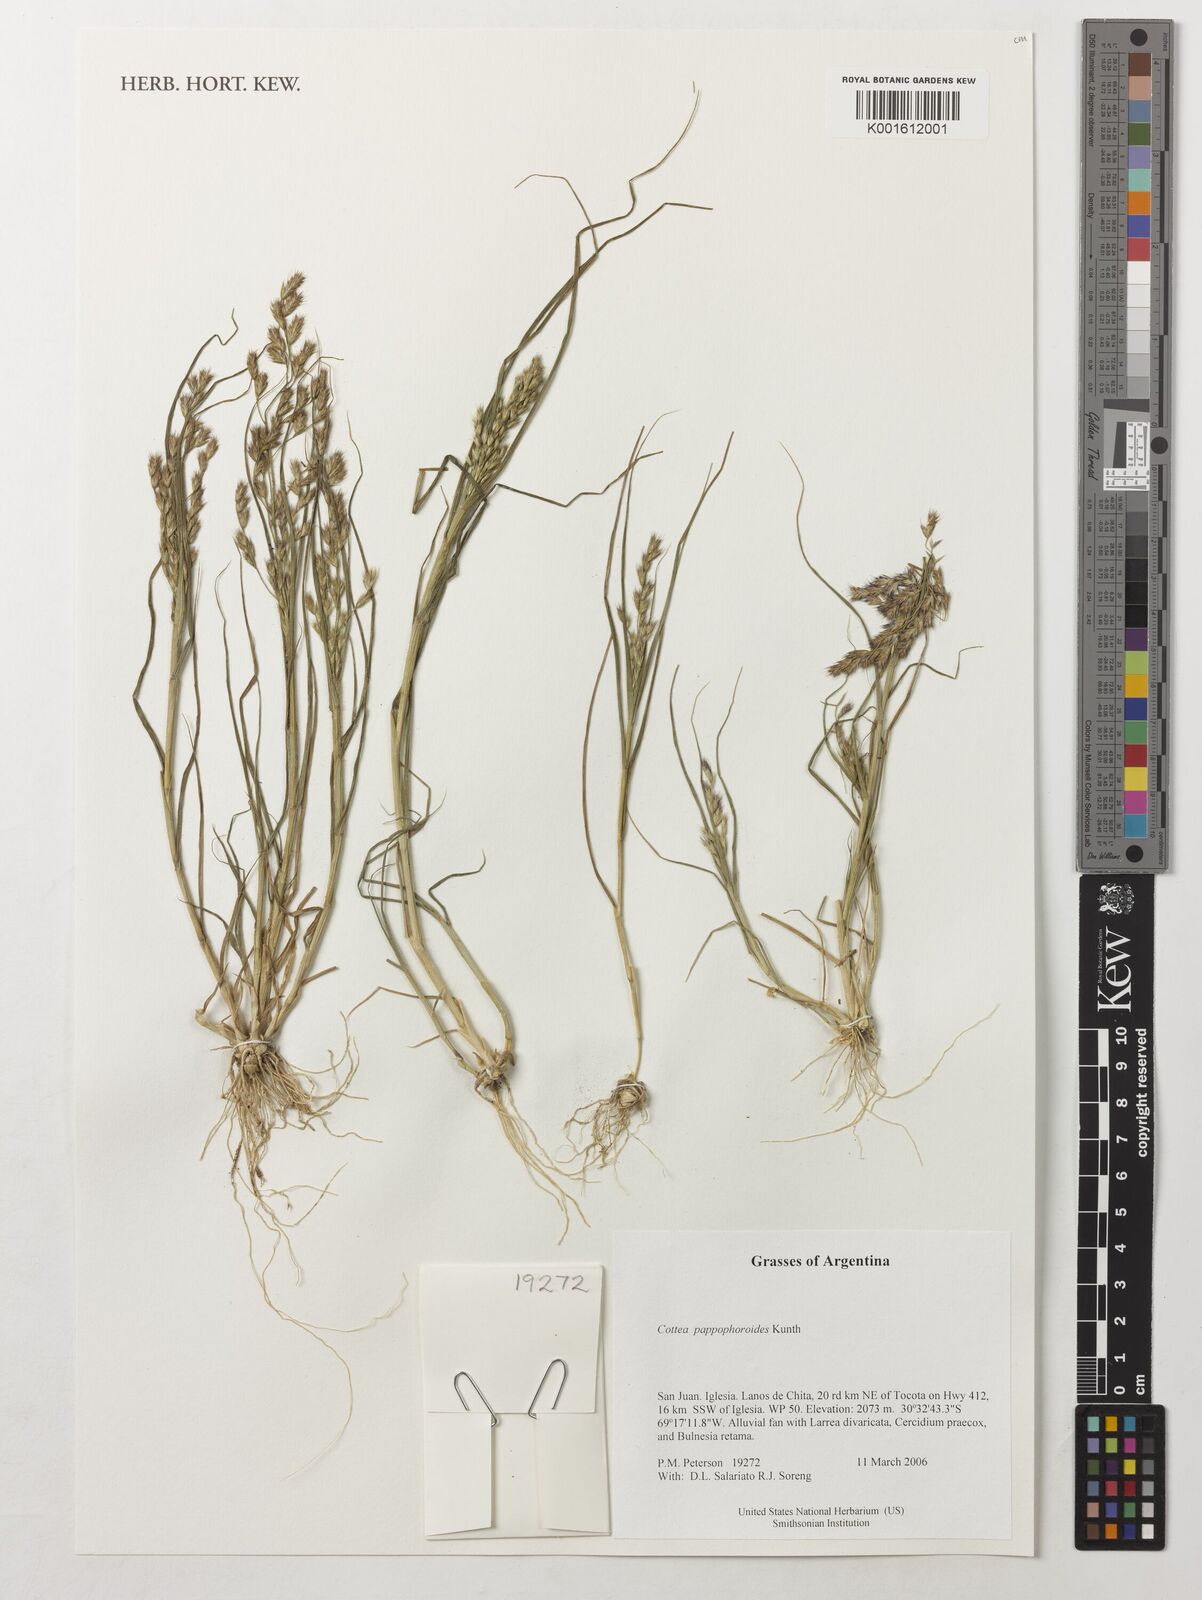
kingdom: Plantae
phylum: Tracheophyta
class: Liliopsida
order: Poales
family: Poaceae
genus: Cottea
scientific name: Cottea pappophoroides
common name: Cotta grass
